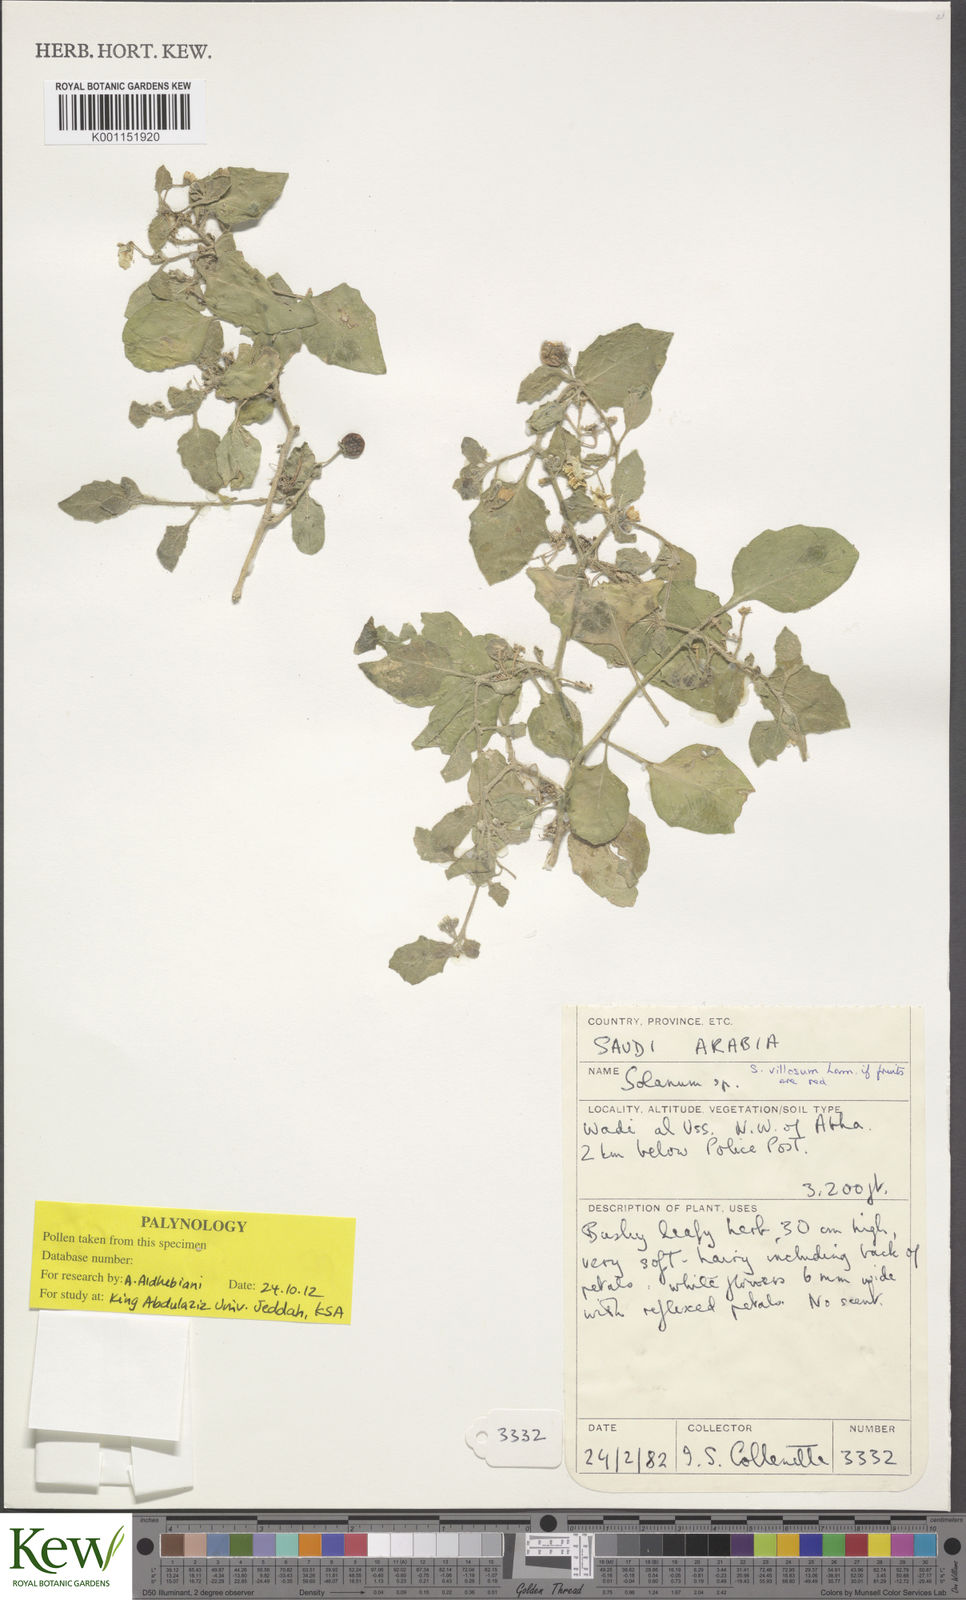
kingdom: Plantae
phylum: Tracheophyta
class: Magnoliopsida
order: Solanales
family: Solanaceae
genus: Solanum
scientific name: Solanum villosum
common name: Red nightshade
